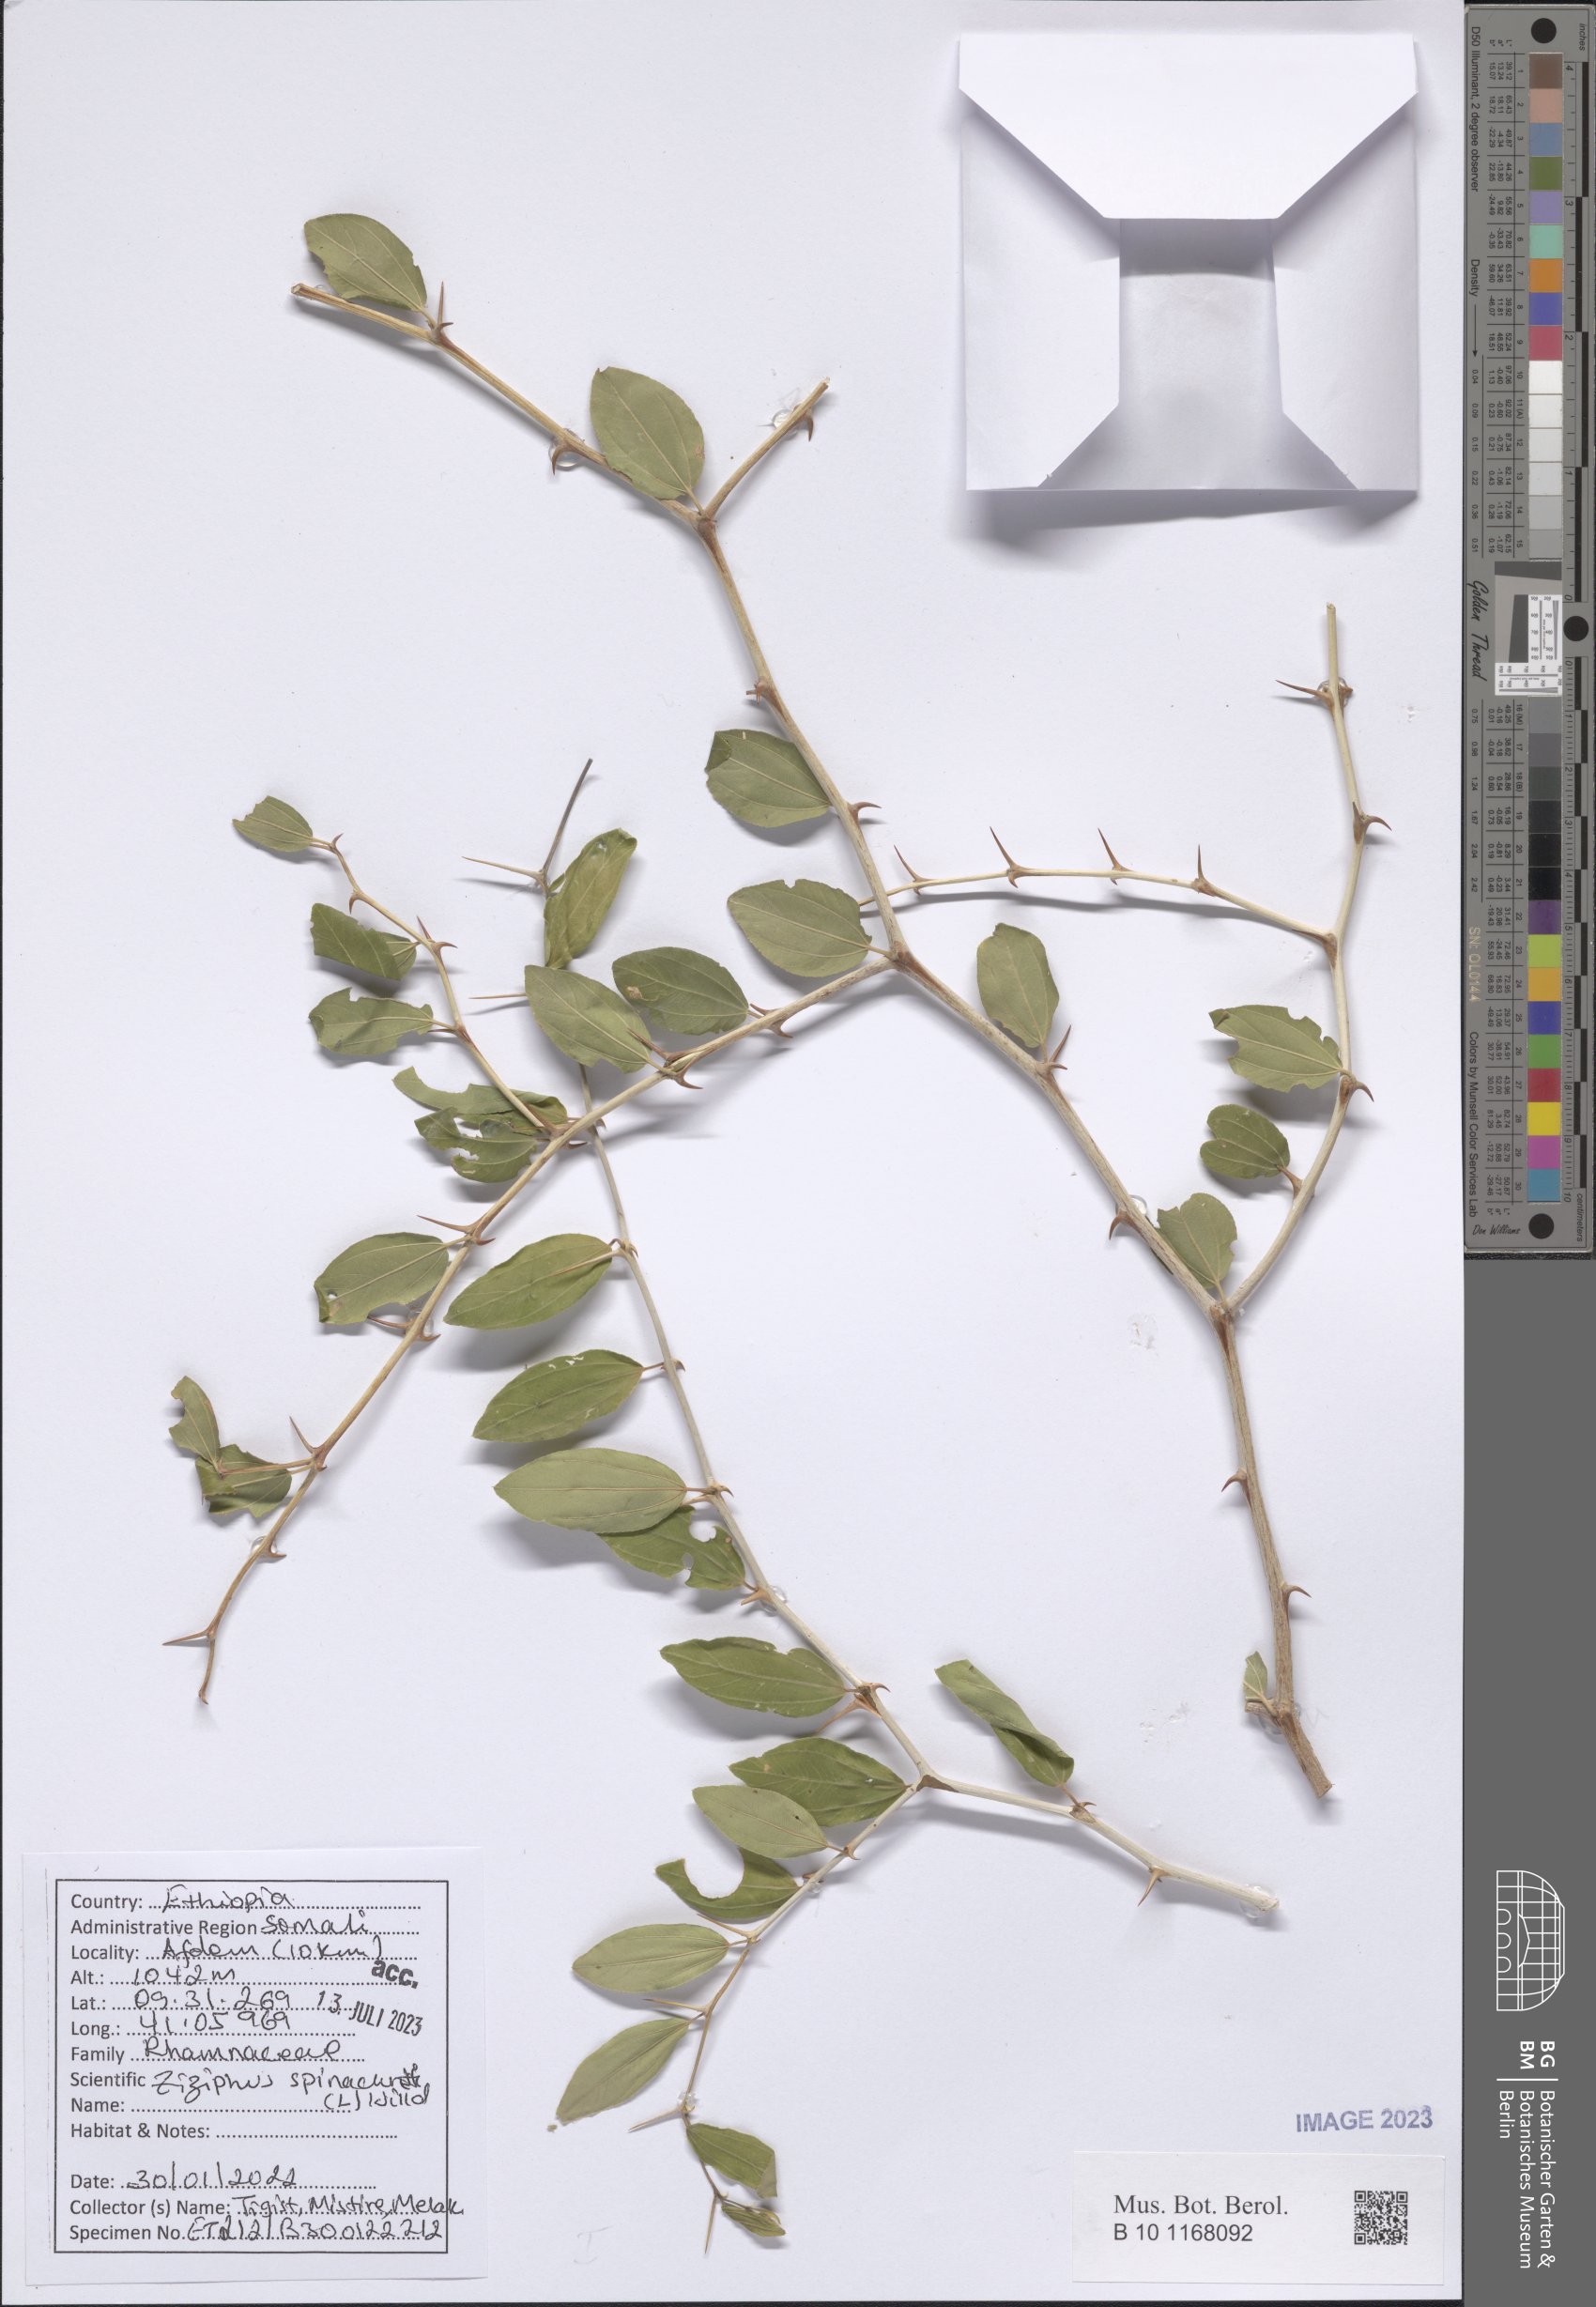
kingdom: Plantae
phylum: Tracheophyta
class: Magnoliopsida
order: Rosales
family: Rhamnaceae
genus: Ziziphus
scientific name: Ziziphus spina-christi
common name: Syrian christ-thorn
